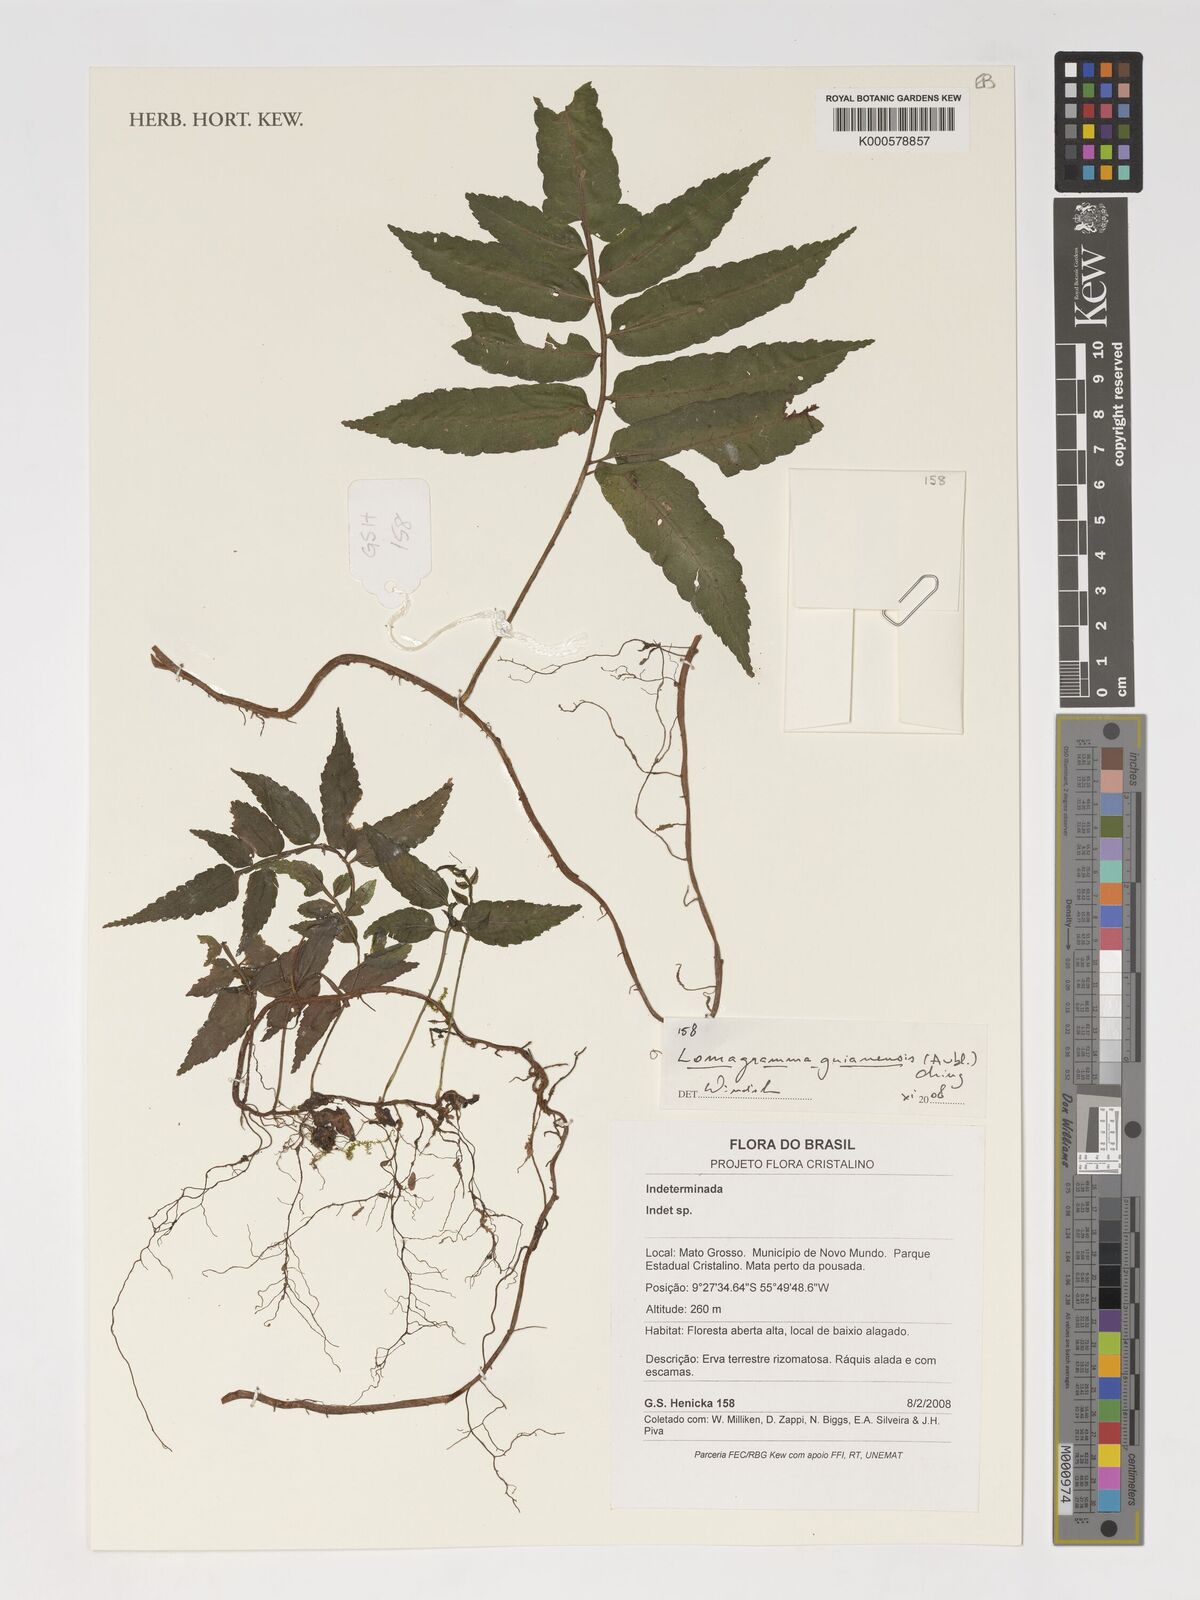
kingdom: Plantae
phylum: Tracheophyta
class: Polypodiopsida
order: Polypodiales
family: Dryopteridaceae
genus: Mickelia
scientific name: Mickelia guianensis
